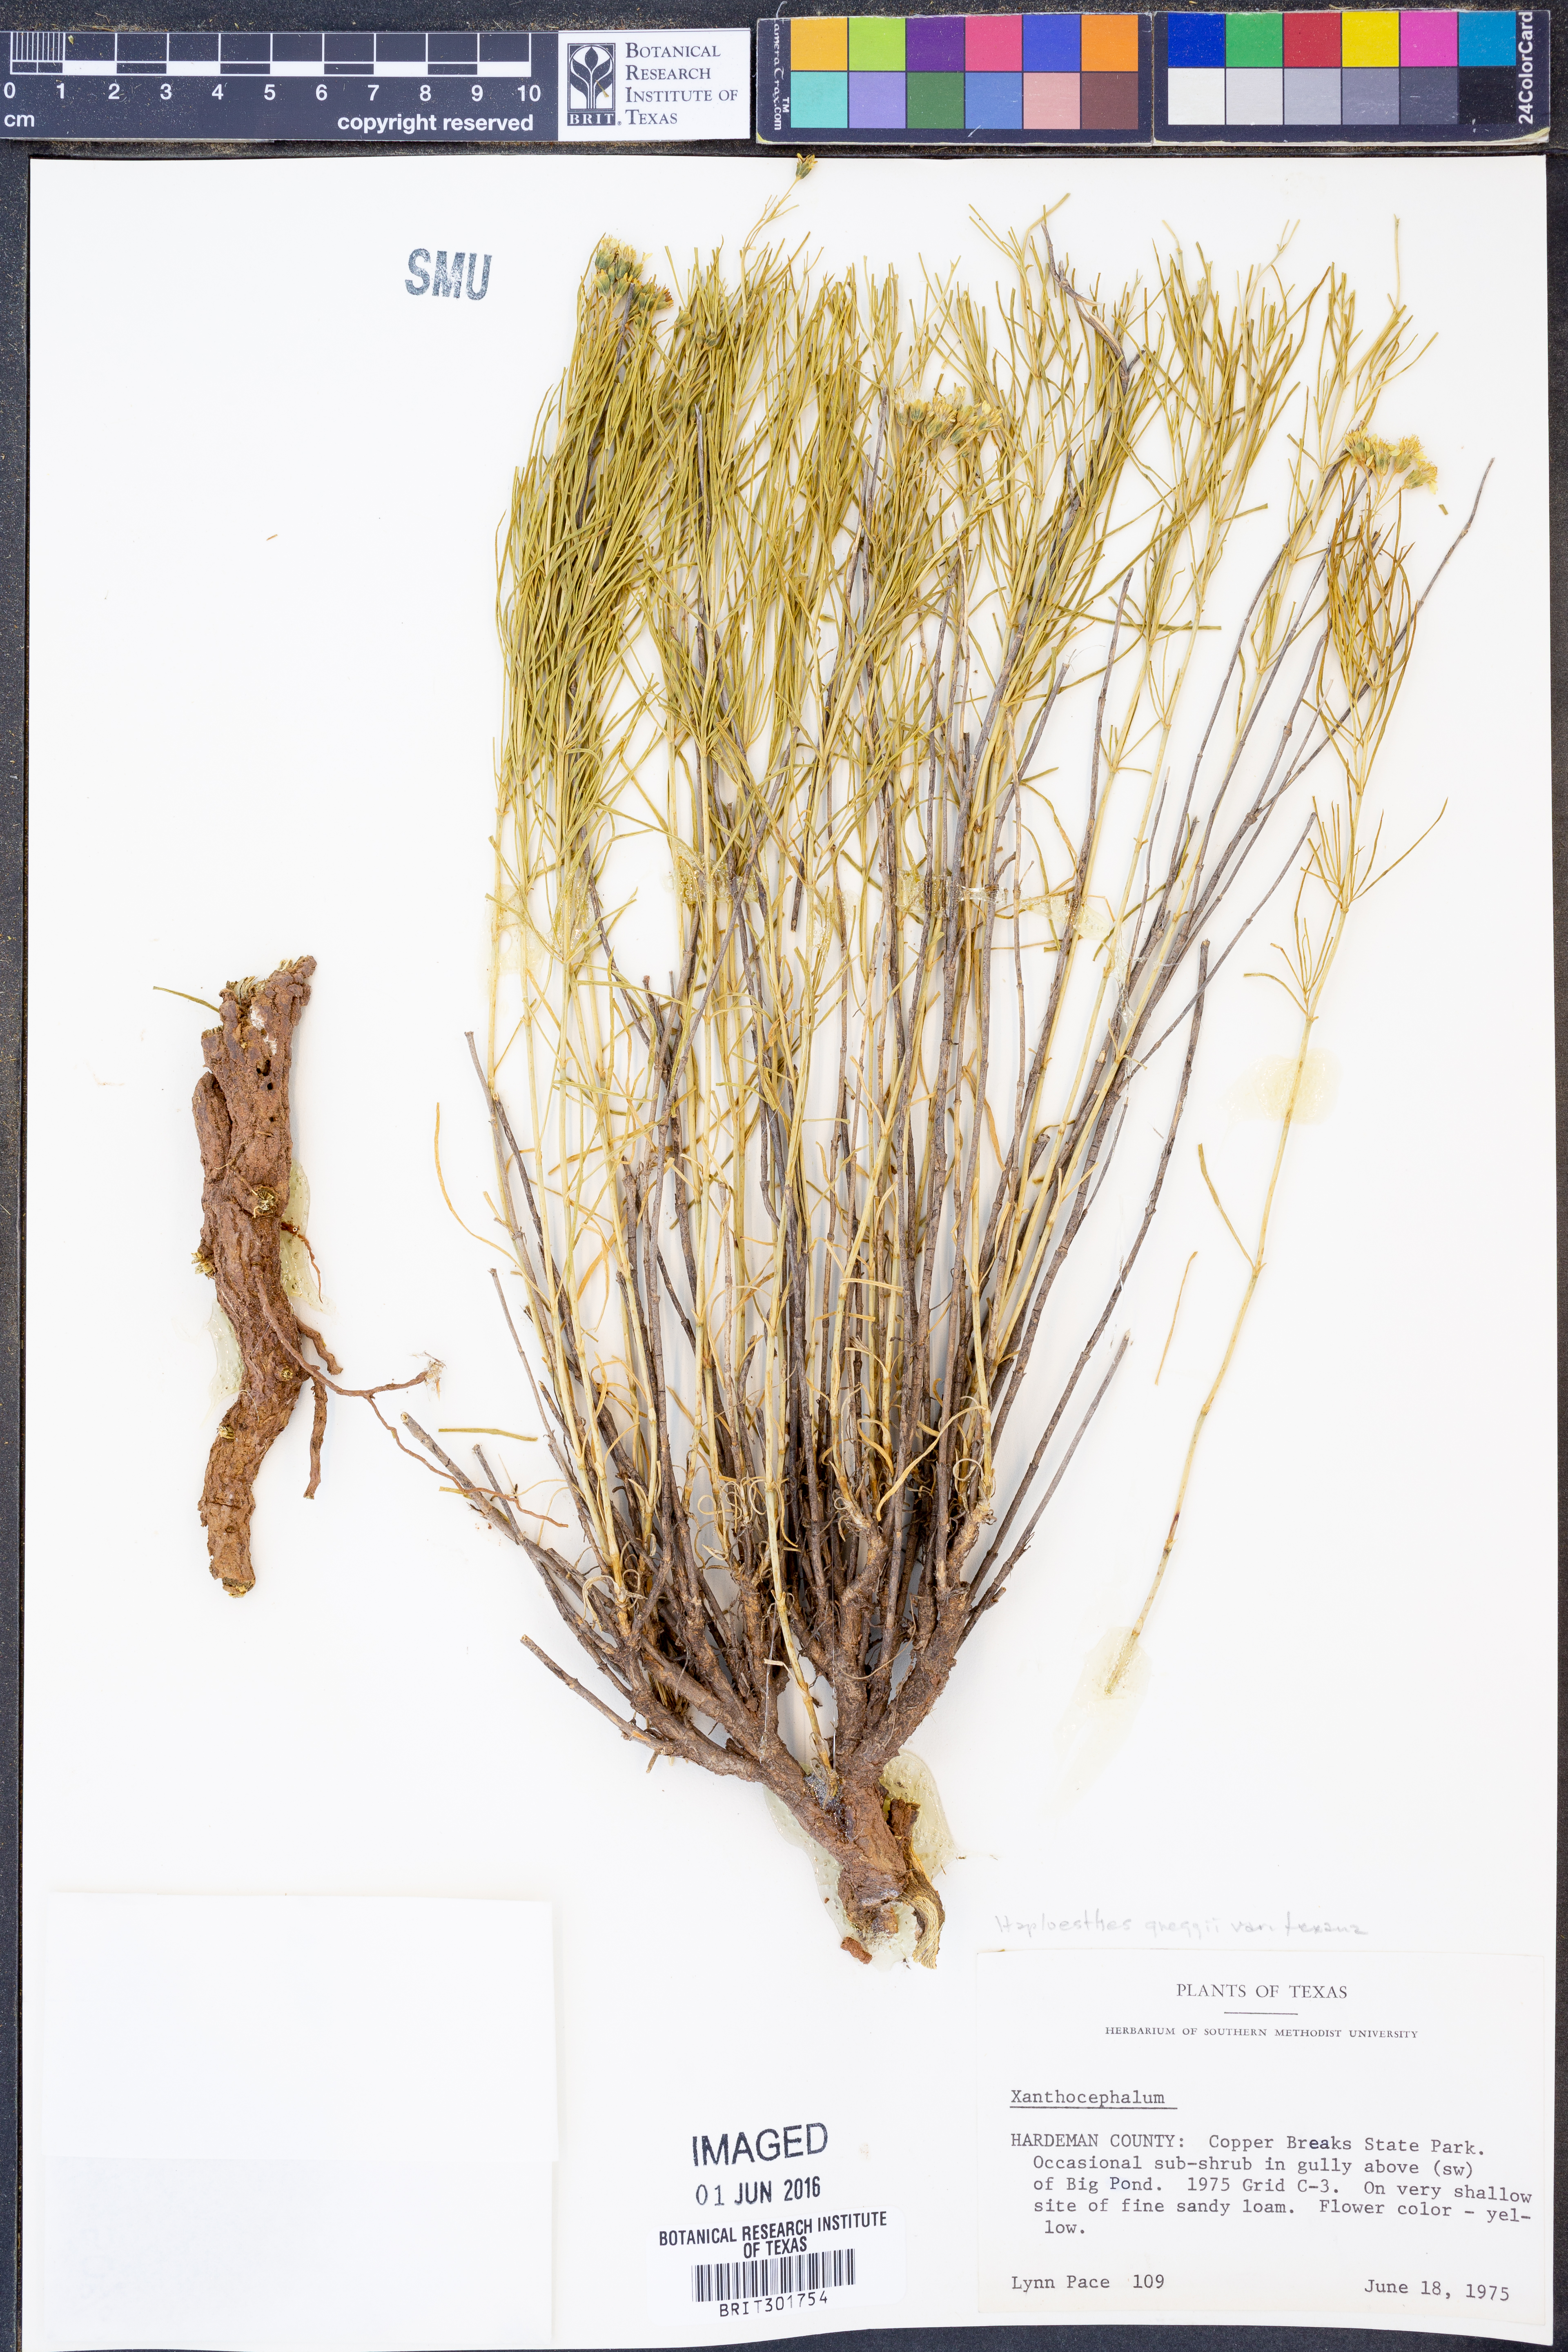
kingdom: Plantae
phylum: Tracheophyta
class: Magnoliopsida
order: Asterales
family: Asteraceae
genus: Haploesthes
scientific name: Haploesthes greggii
